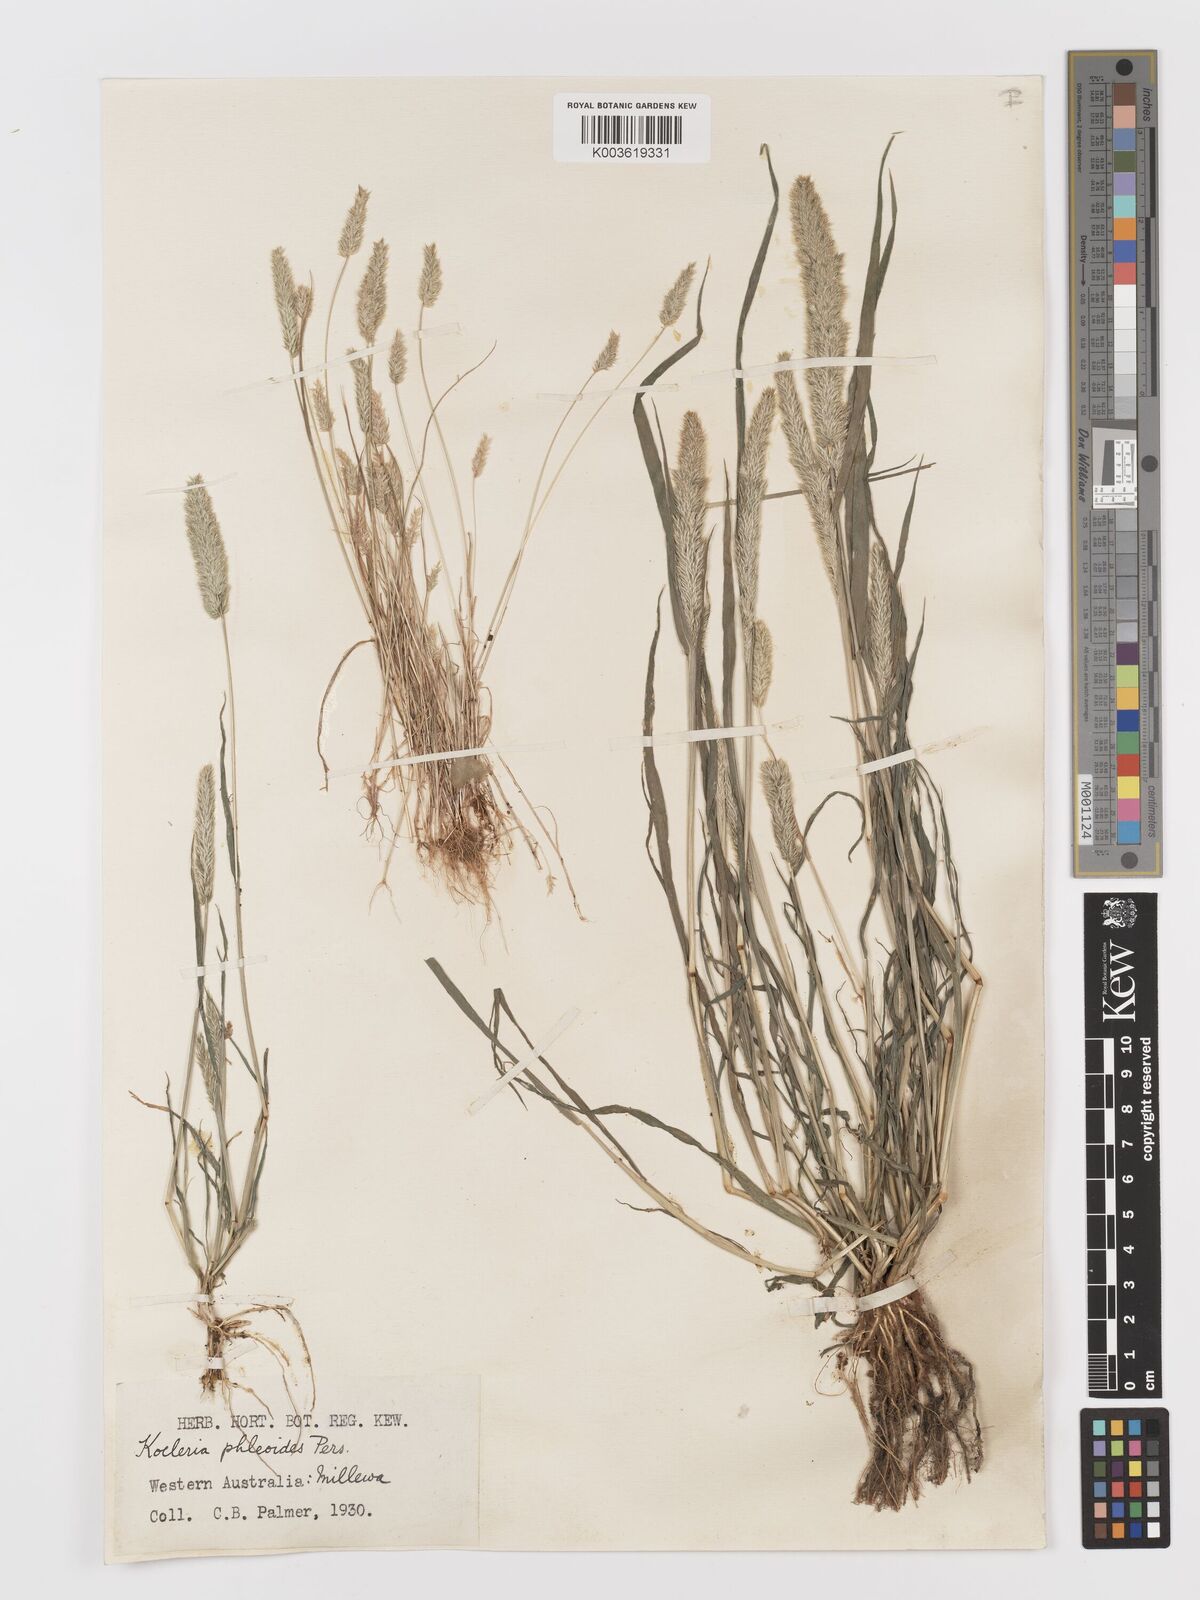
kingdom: Plantae
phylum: Tracheophyta
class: Liliopsida
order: Poales
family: Poaceae
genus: Rostraria
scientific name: Rostraria cristata
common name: Mediterranean hair-grass
